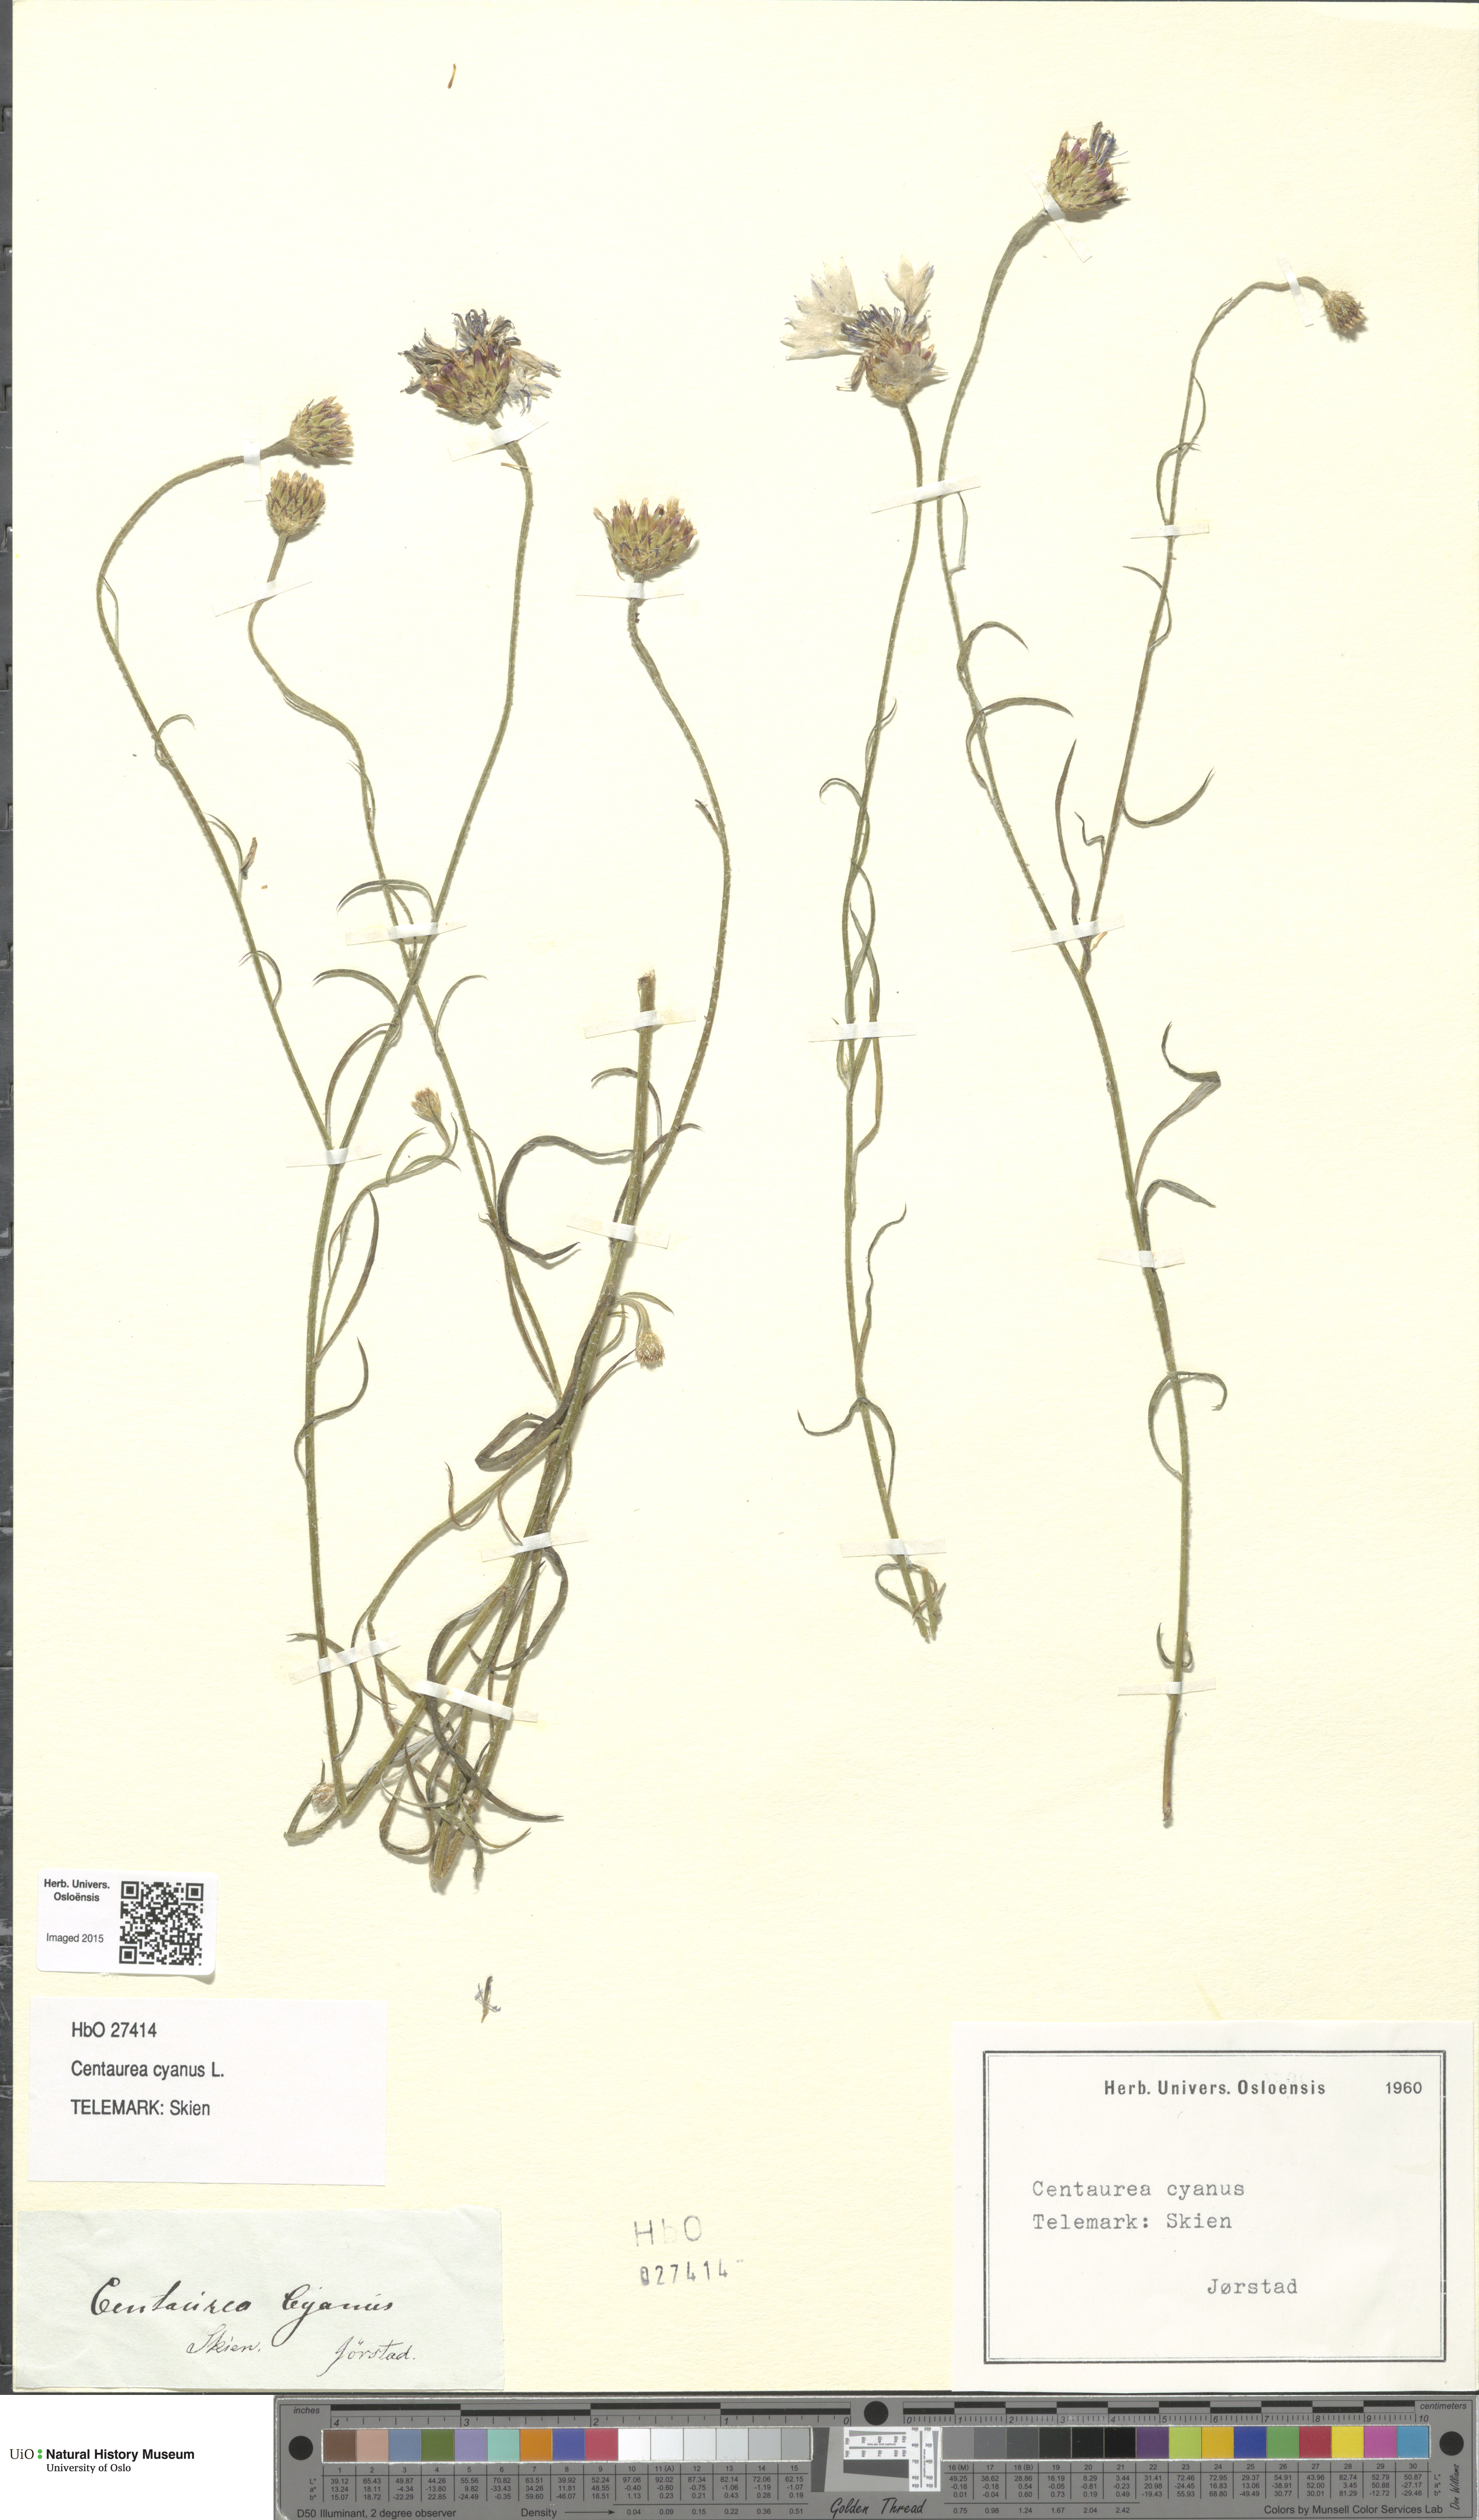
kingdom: Plantae
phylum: Tracheophyta
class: Magnoliopsida
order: Asterales
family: Asteraceae
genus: Centaurea
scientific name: Centaurea cyanus
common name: Cornflower
